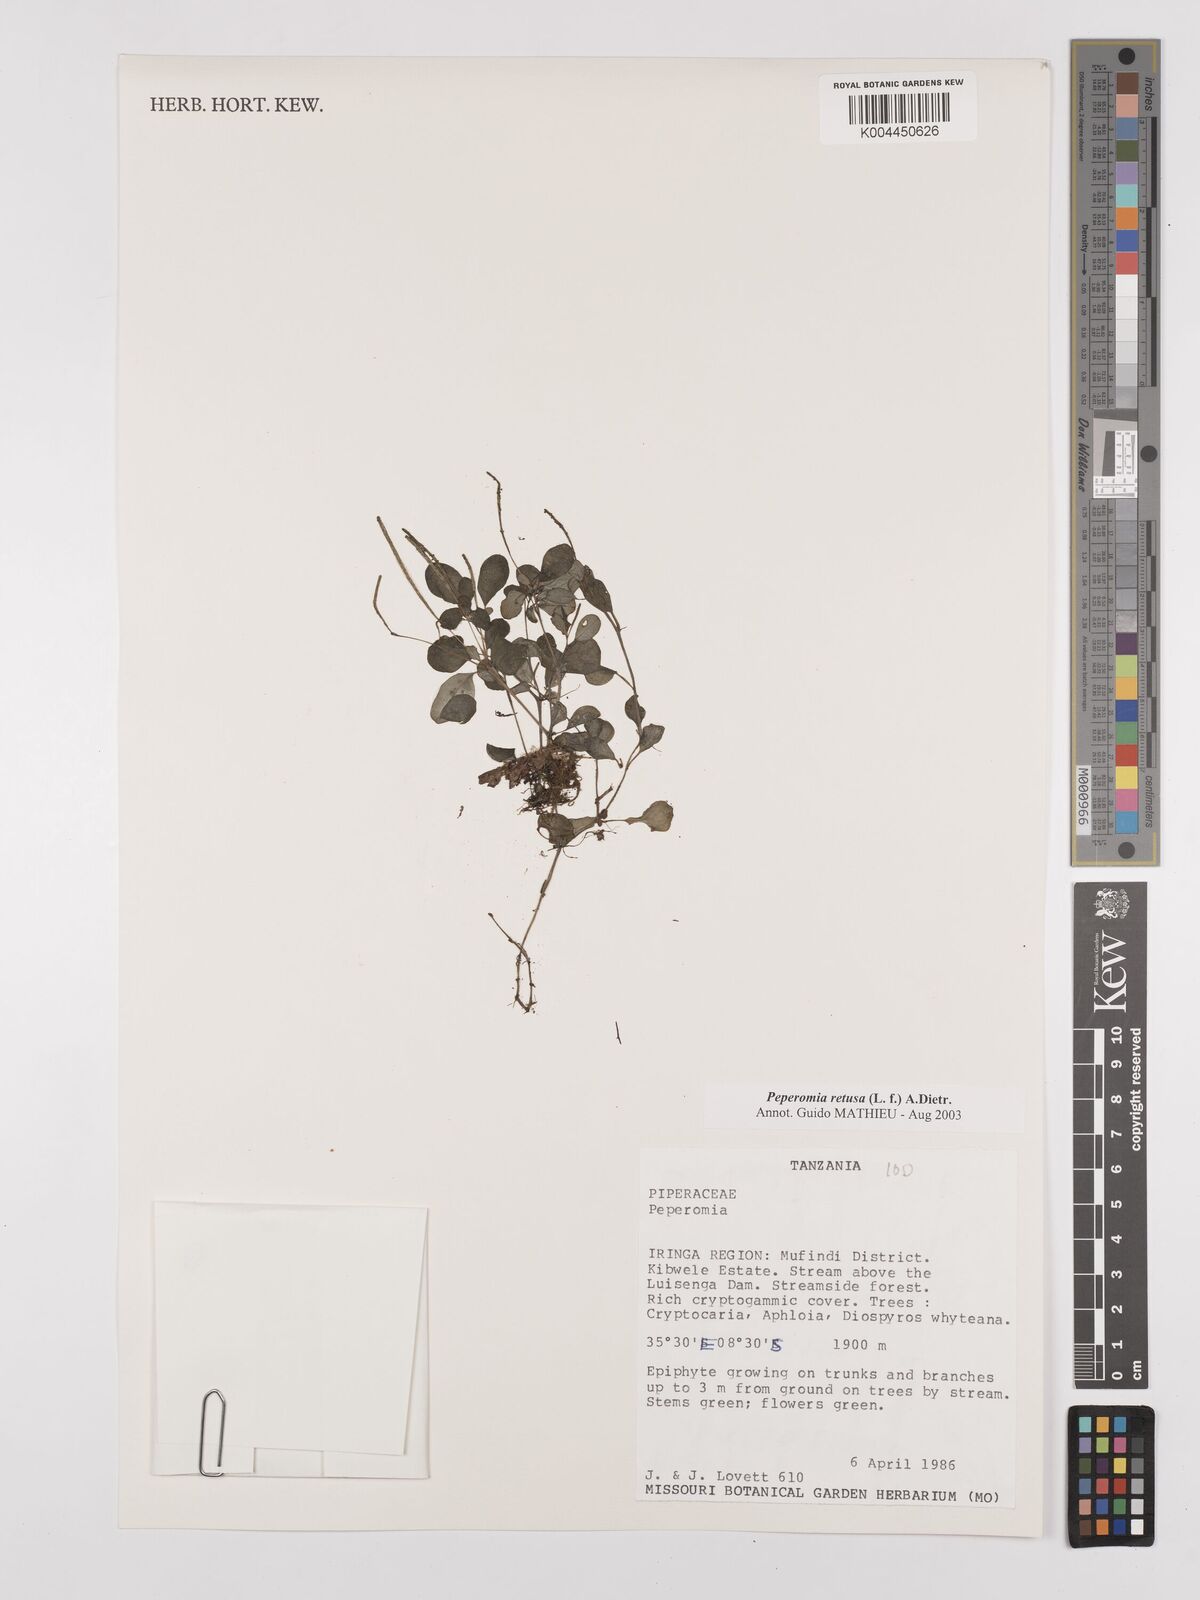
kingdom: Plantae
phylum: Tracheophyta
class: Magnoliopsida
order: Piperales
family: Piperaceae
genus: Peperomia
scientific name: Peperomia retusa
